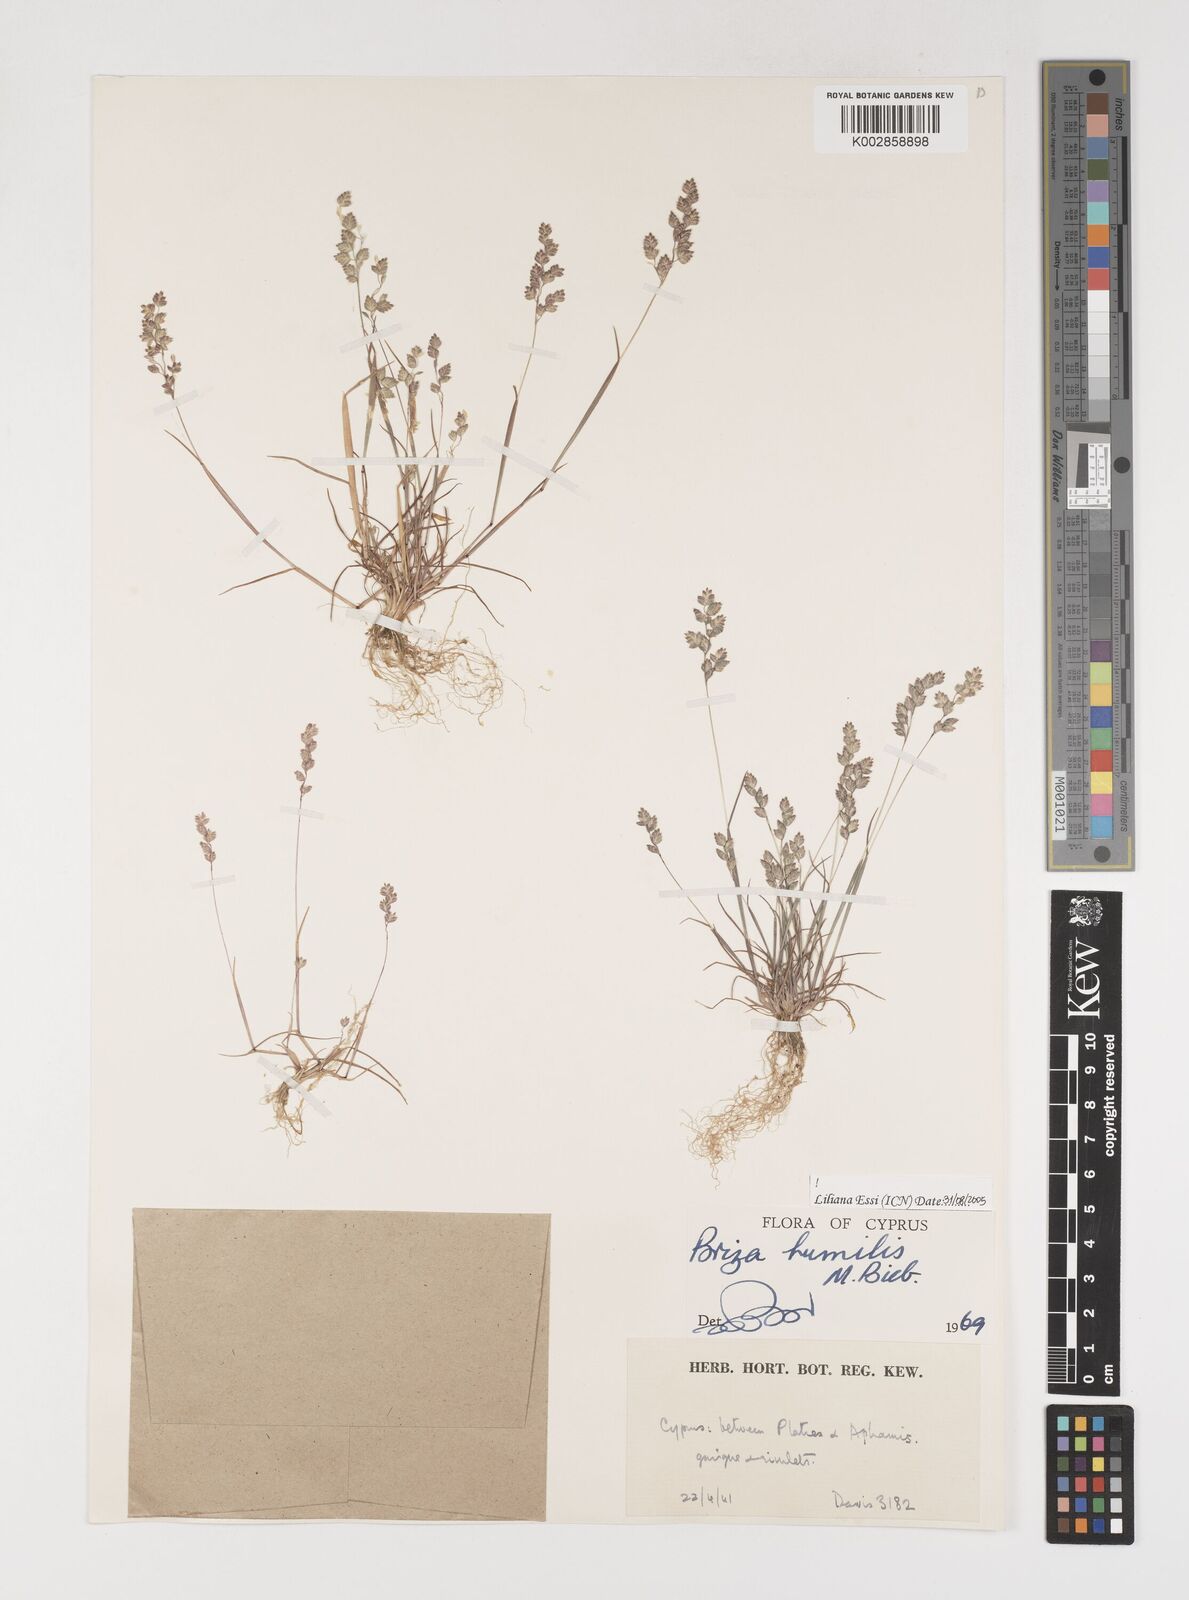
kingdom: Plantae
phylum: Tracheophyta
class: Liliopsida
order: Poales
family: Poaceae
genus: Briza
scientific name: Briza humilis
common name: Spiked quaking grass
